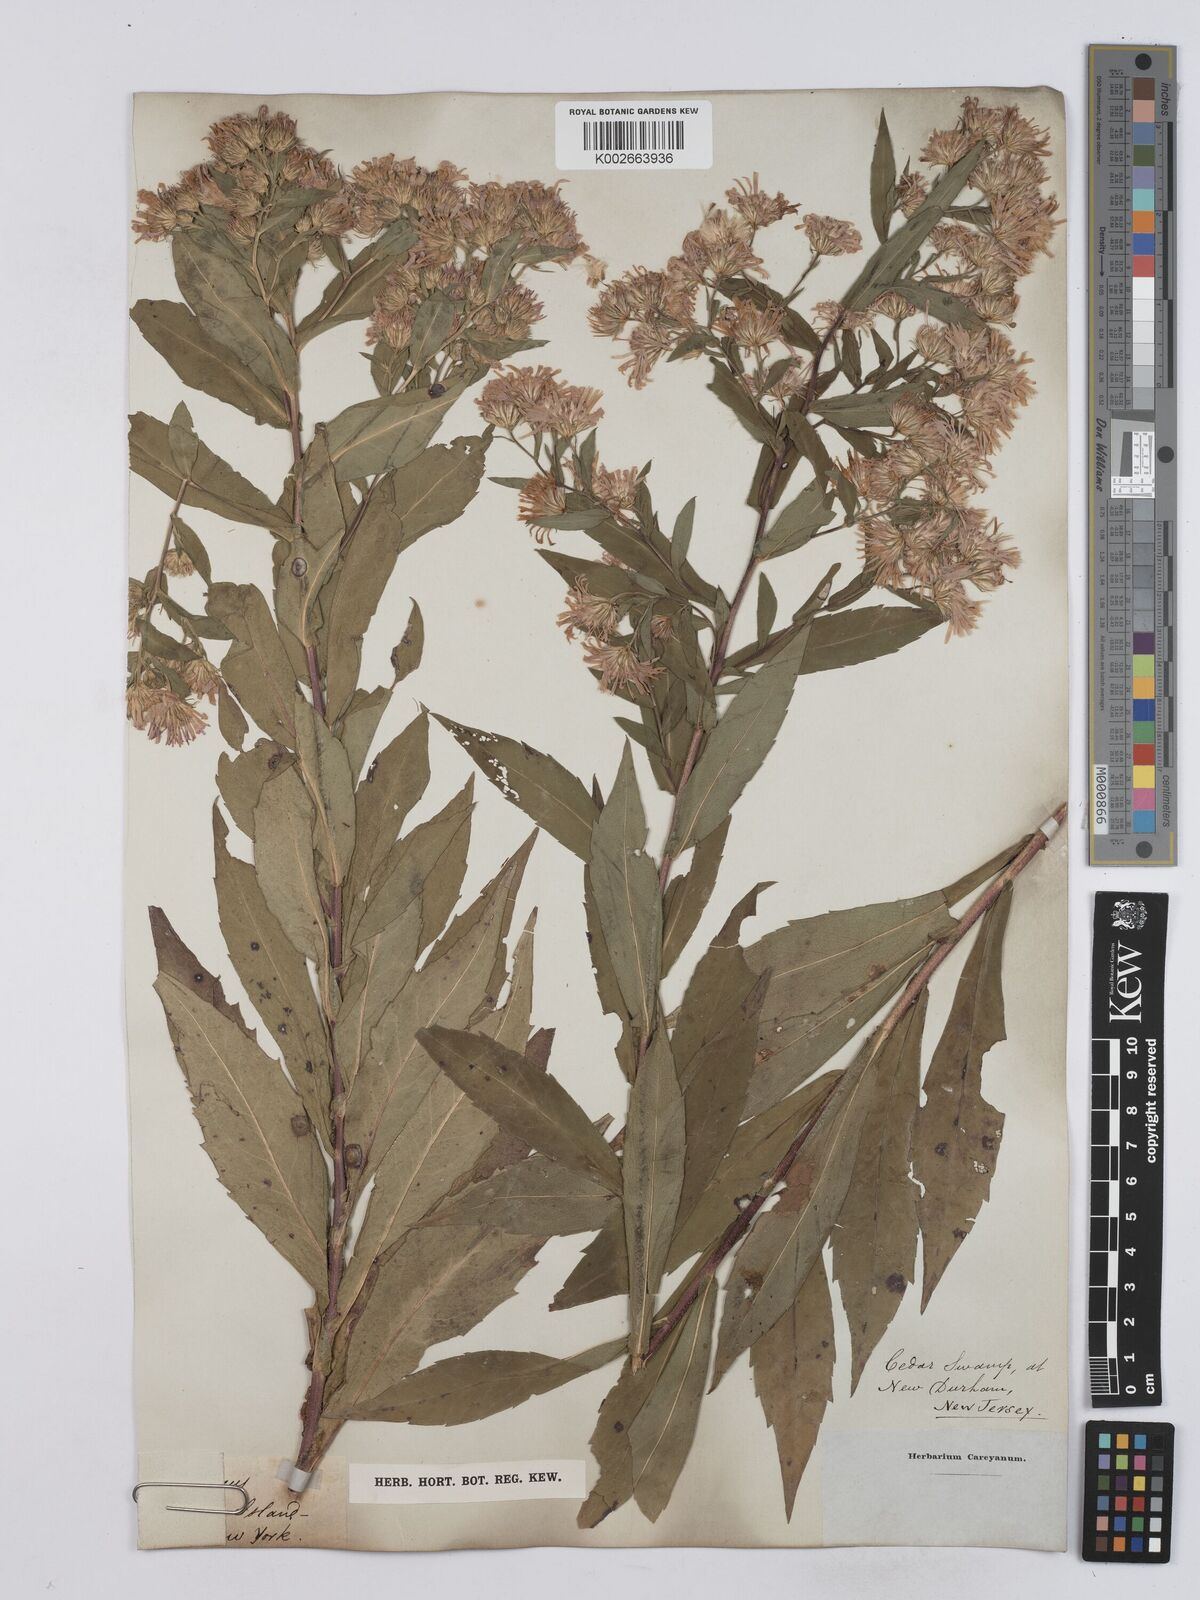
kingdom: Plantae
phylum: Tracheophyta
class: Magnoliopsida
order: Asterales
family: Asteraceae
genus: Symphyotrichum
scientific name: Symphyotrichum puniceum
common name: Bog aster
